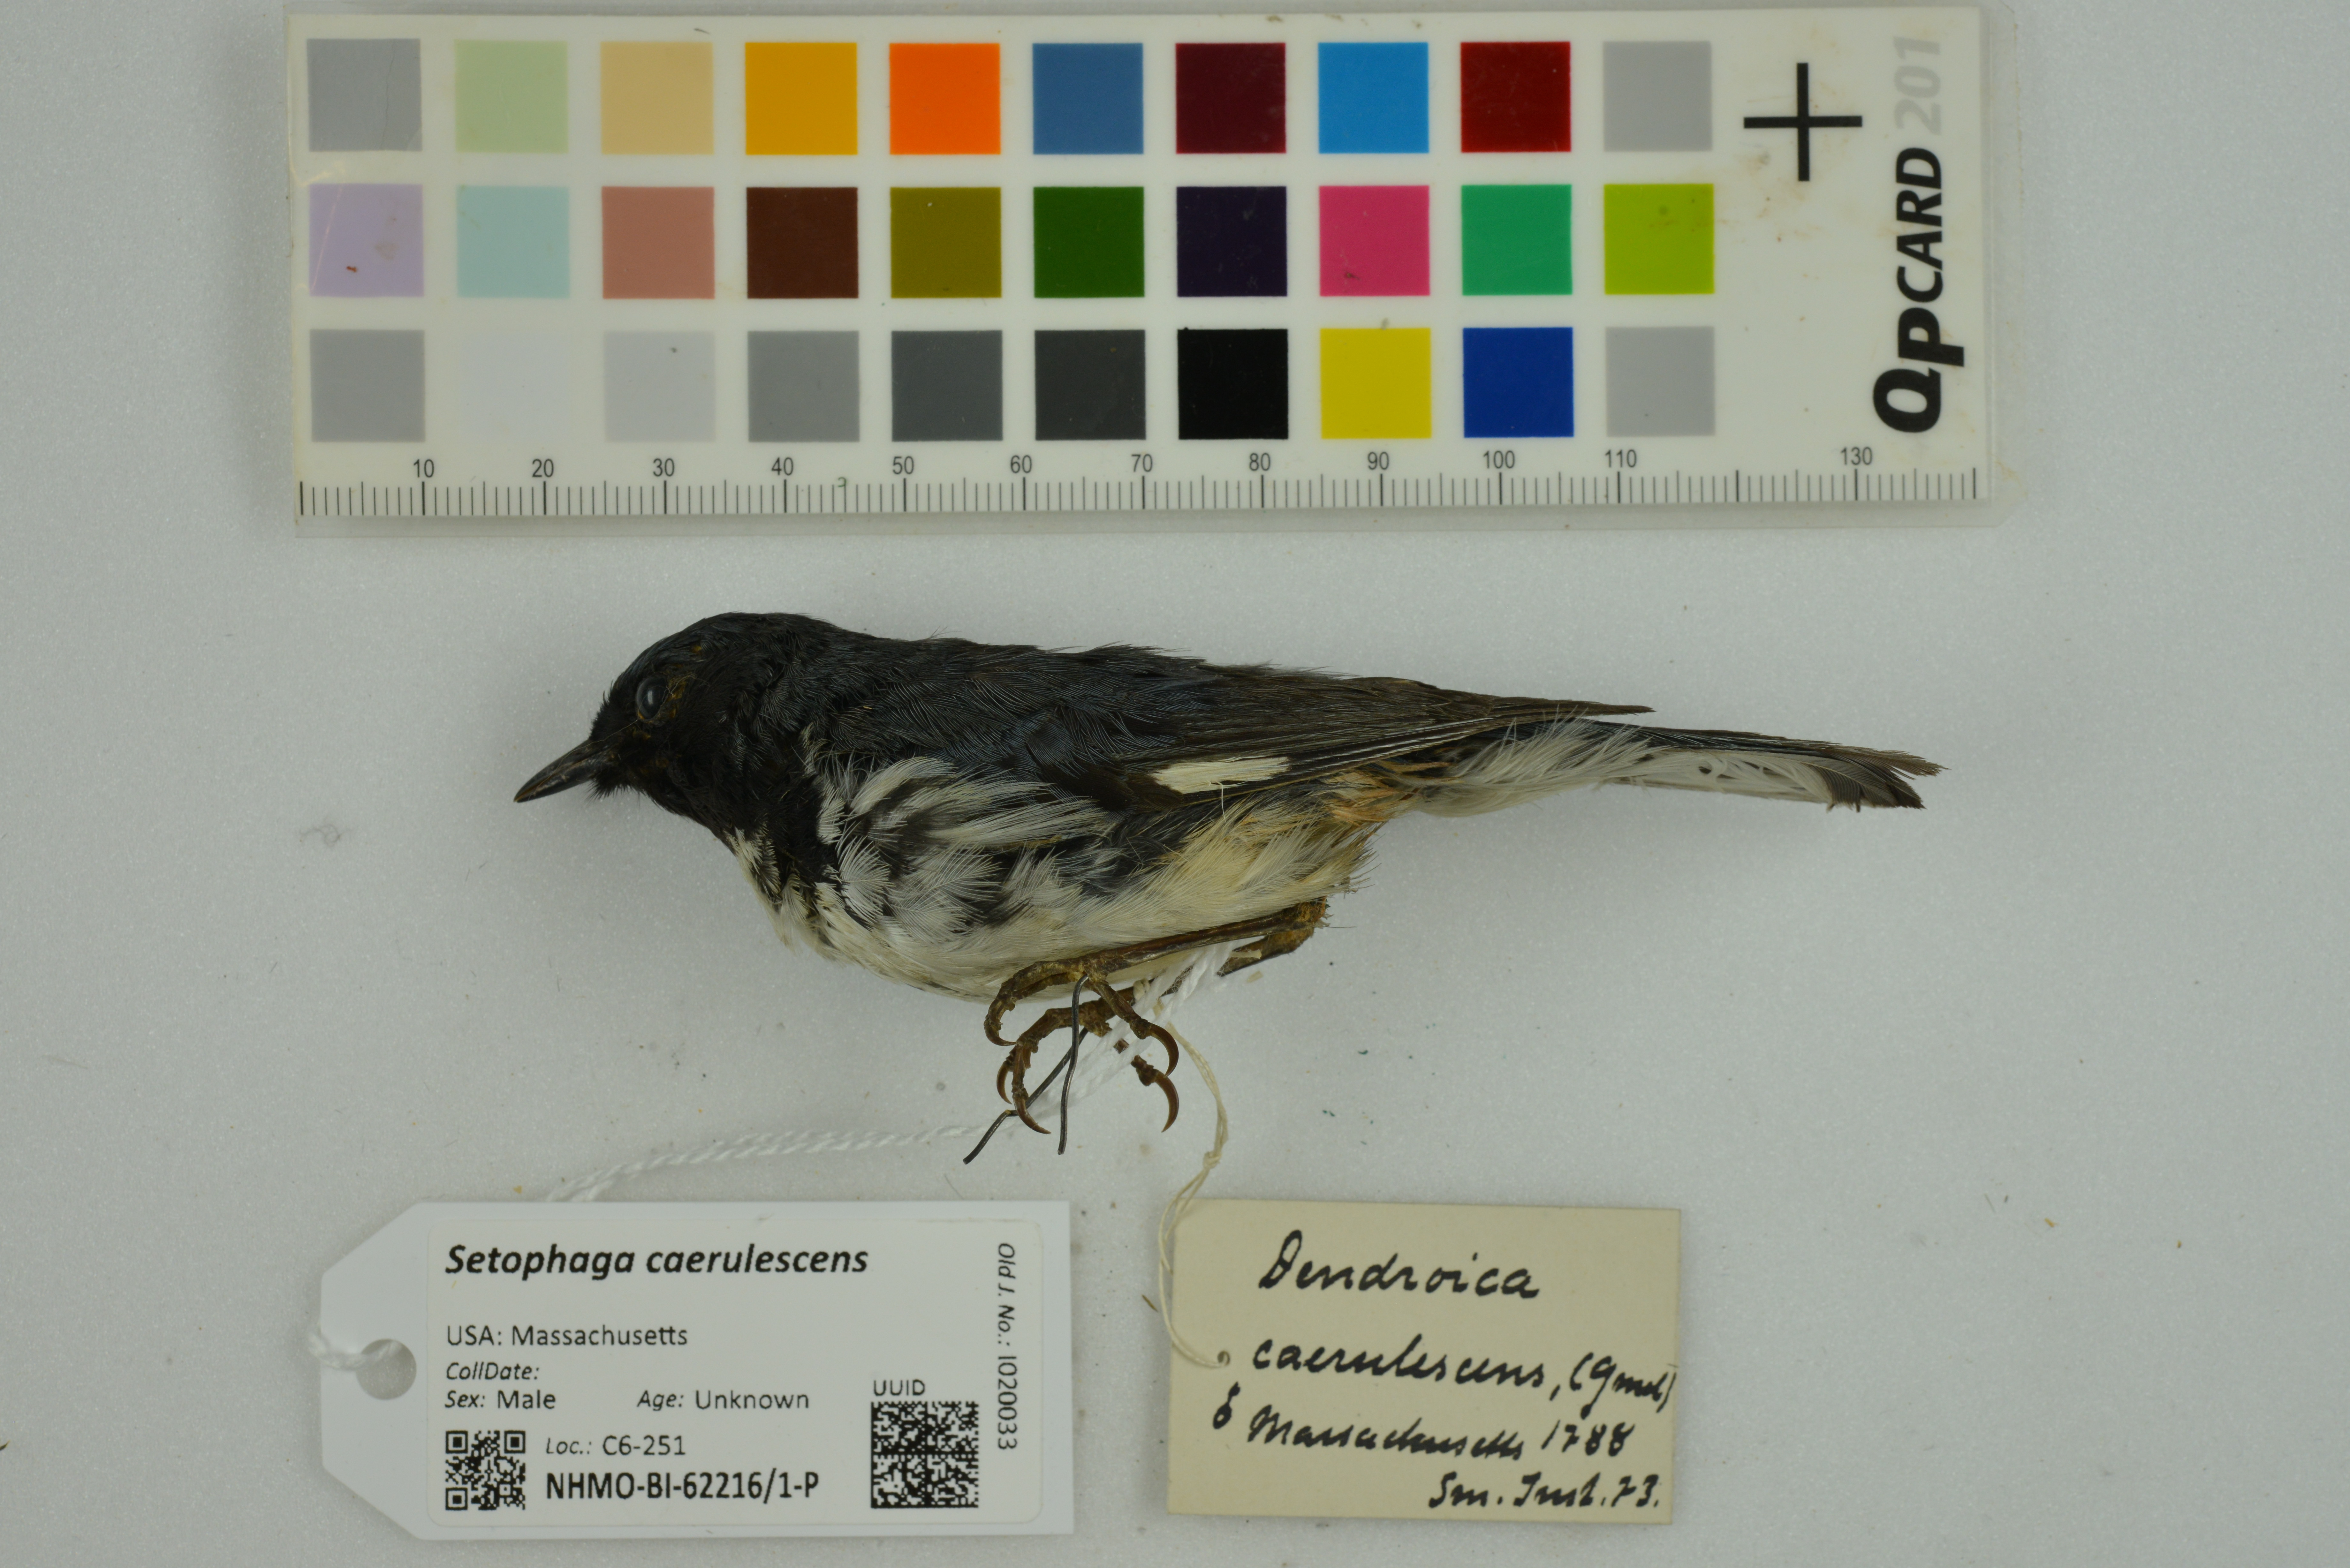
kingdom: Animalia
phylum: Chordata
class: Aves
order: Passeriformes
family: Parulidae
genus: Setophaga
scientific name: Setophaga caerulescens
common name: Black-throated blue warbler
